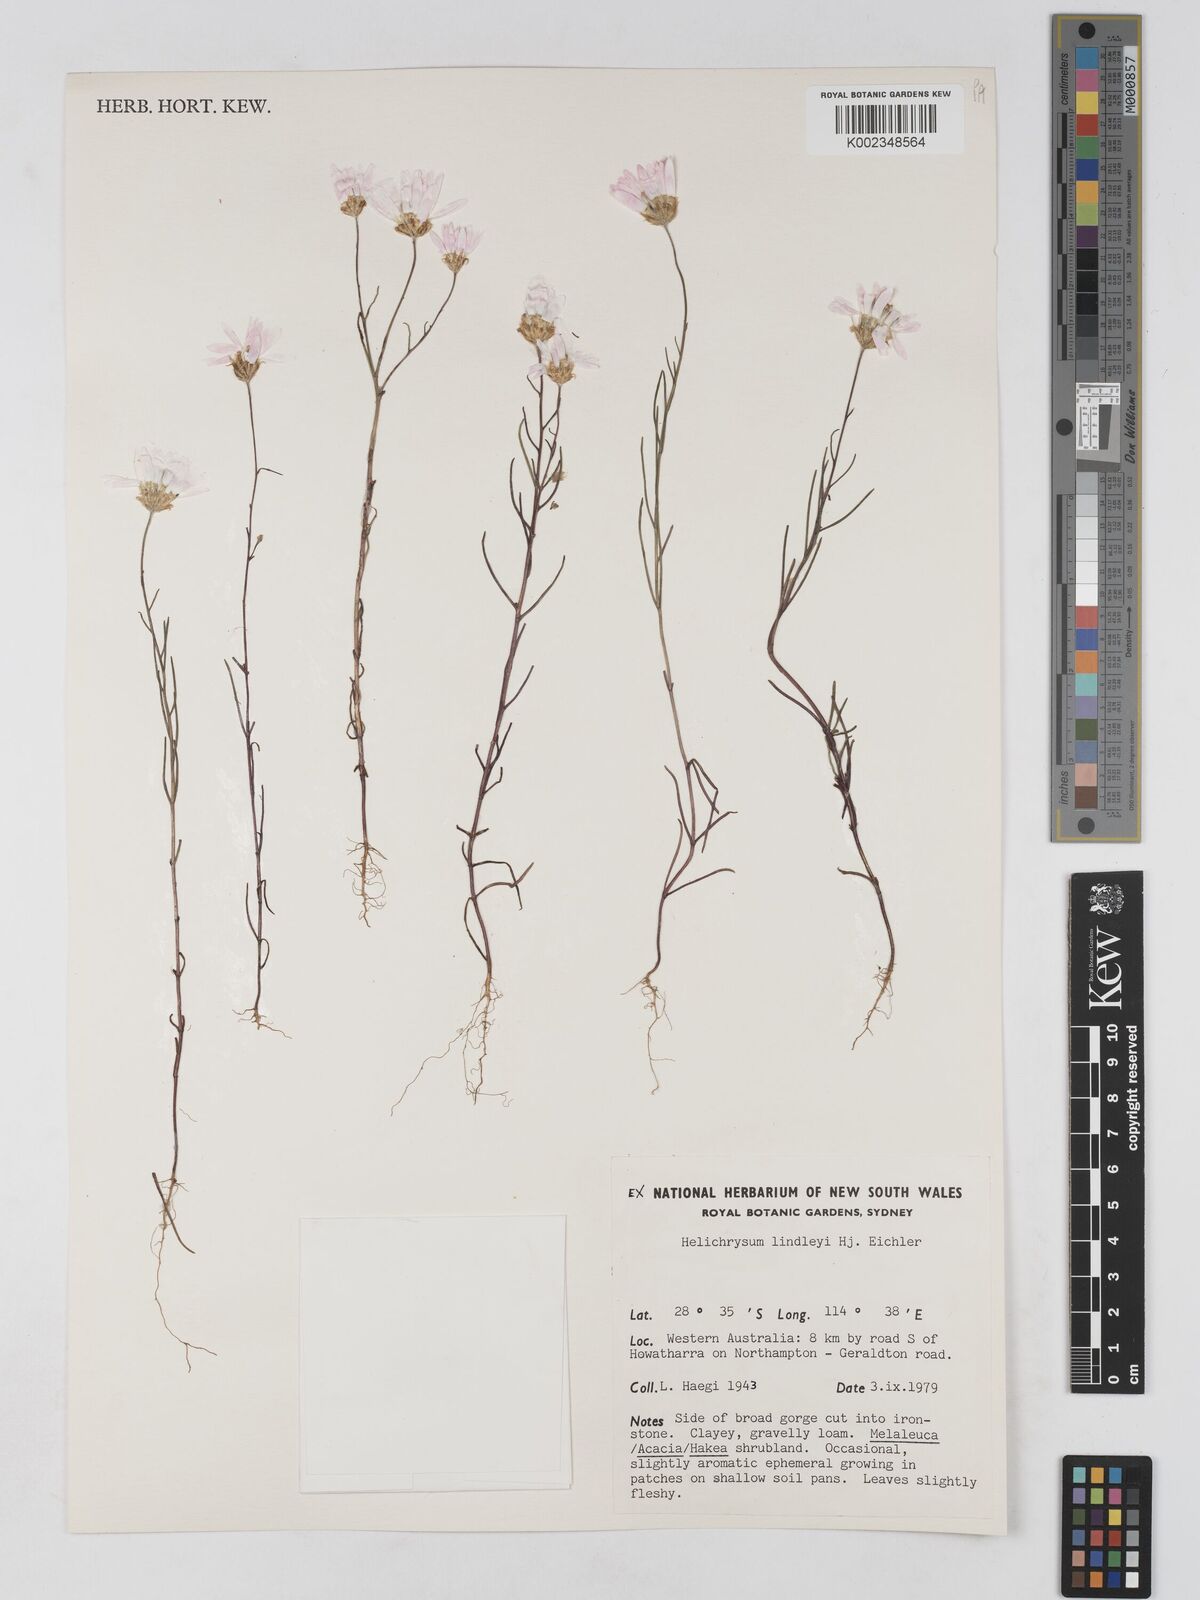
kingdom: Plantae
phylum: Tracheophyta
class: Magnoliopsida
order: Asterales
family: Asteraceae
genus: Lawrencella
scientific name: Lawrencella rosea
